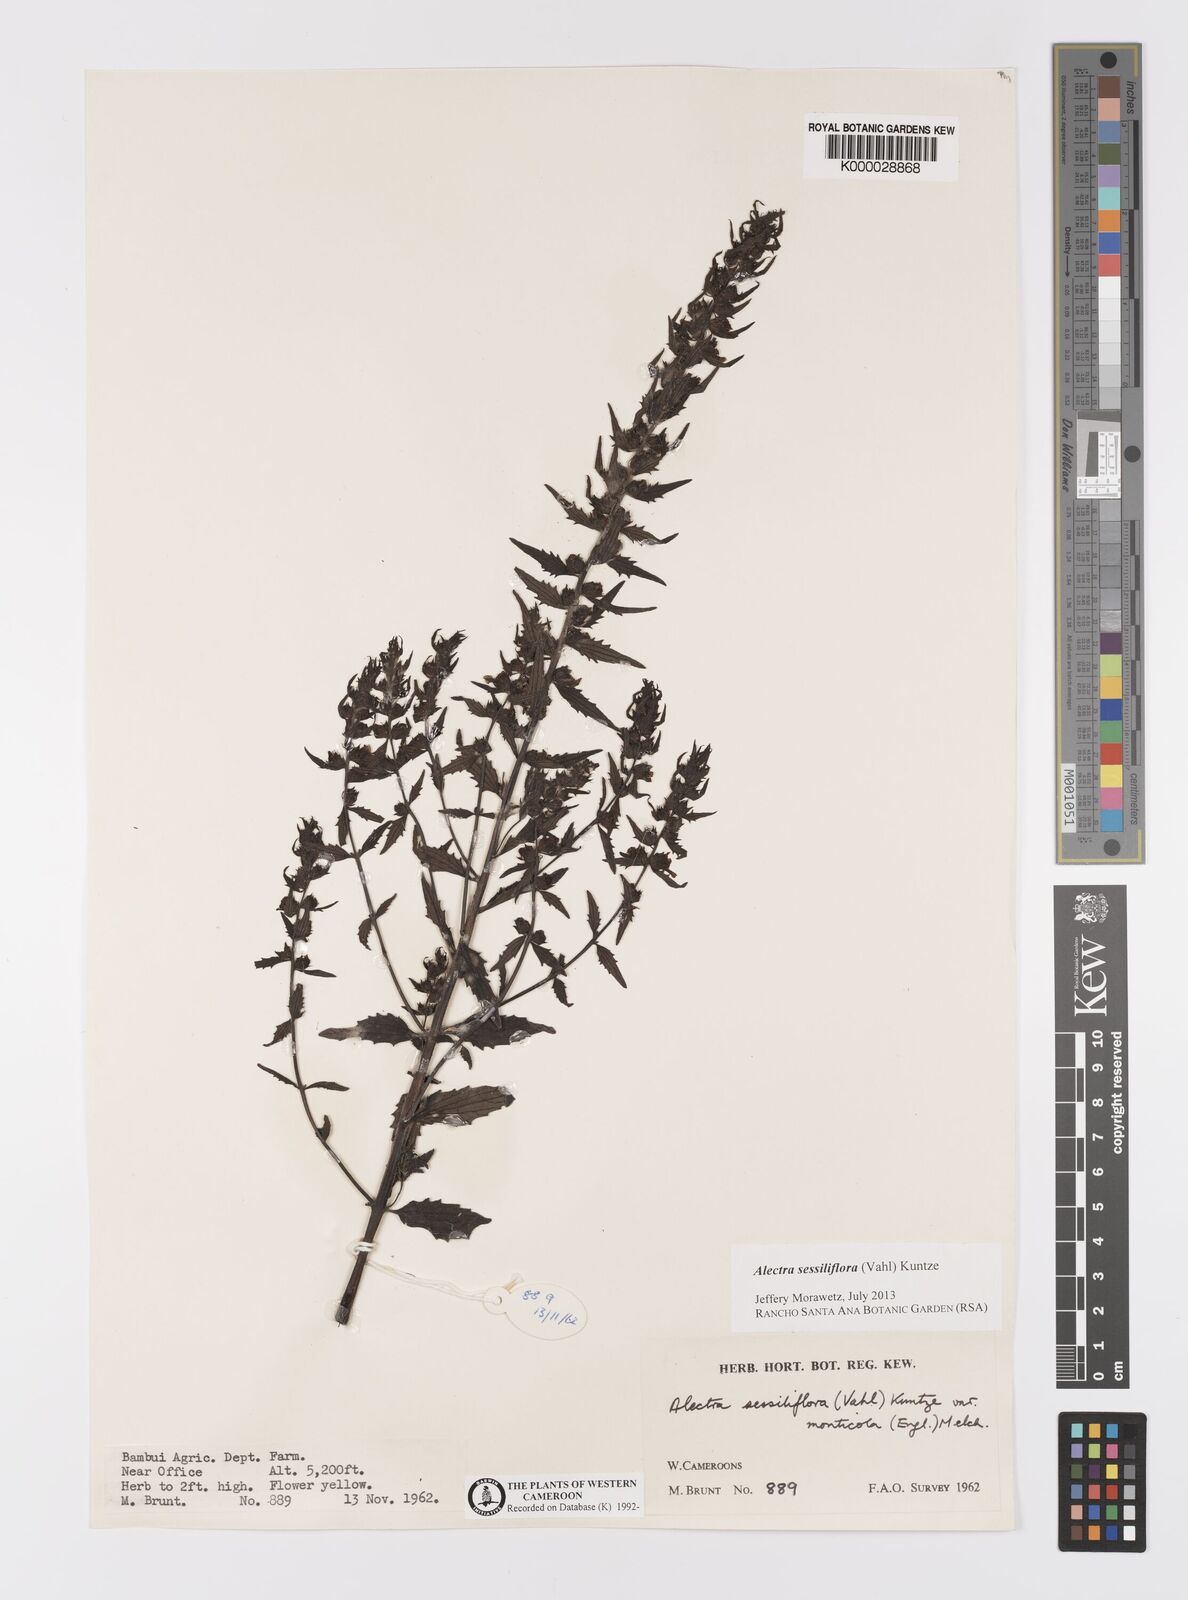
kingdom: Plantae
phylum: Tracheophyta
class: Magnoliopsida
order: Lamiales
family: Orobanchaceae
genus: Alectra
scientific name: Alectra sessiliflora
